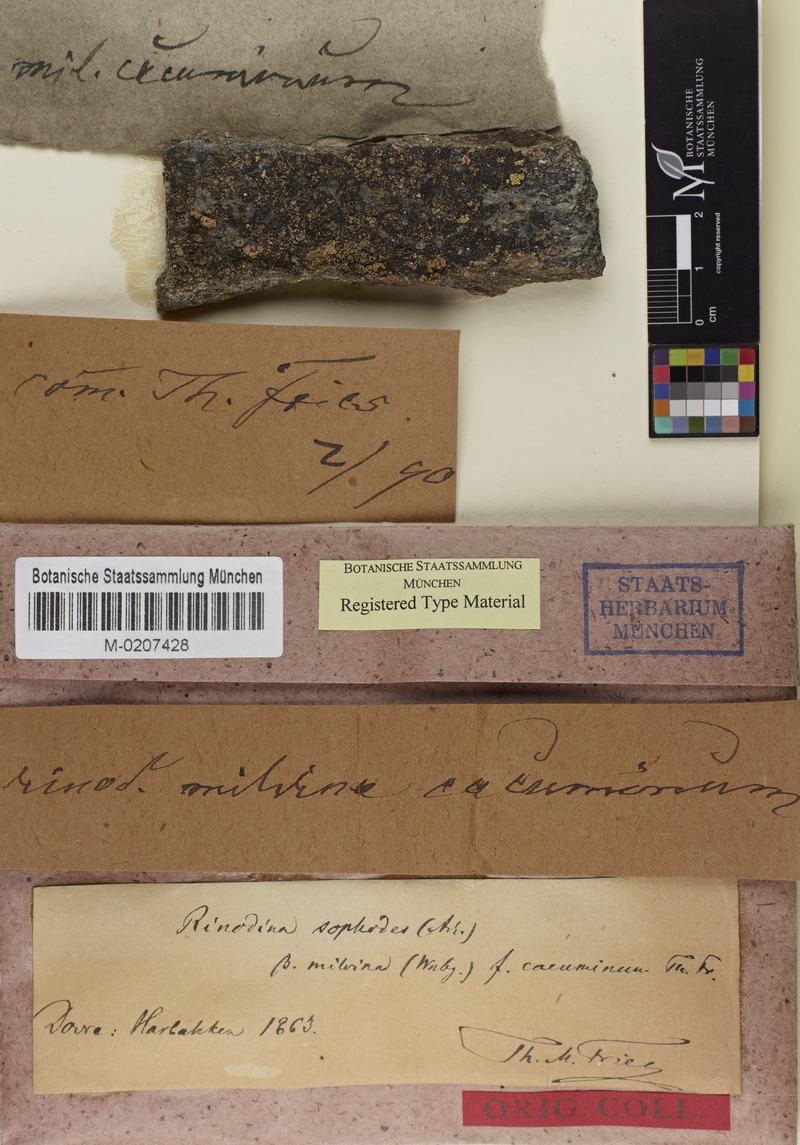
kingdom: Fungi
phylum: Ascomycota
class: Lecanoromycetes
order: Caliciales
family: Caliciaceae
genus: Amandinea
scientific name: Amandinea cacuminum
